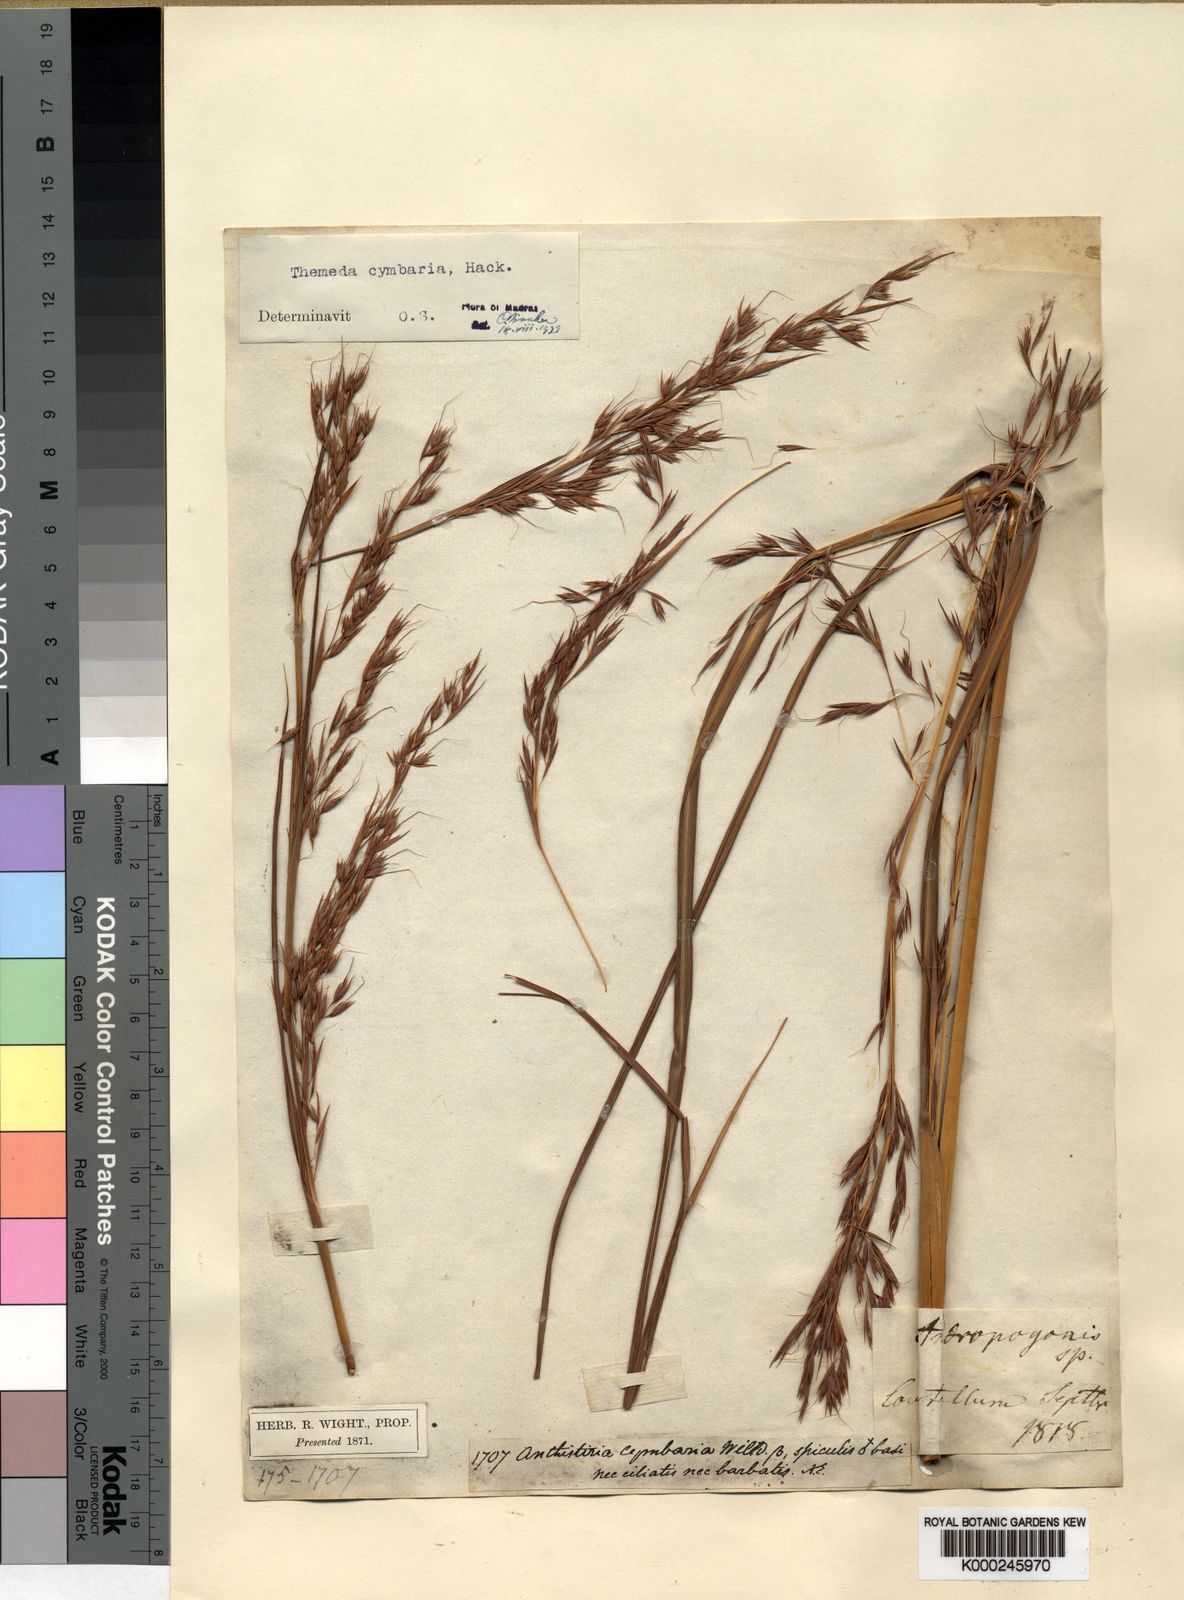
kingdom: Plantae
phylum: Tracheophyta
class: Liliopsida
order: Poales
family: Poaceae
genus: Themeda
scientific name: Themeda cymbaria
